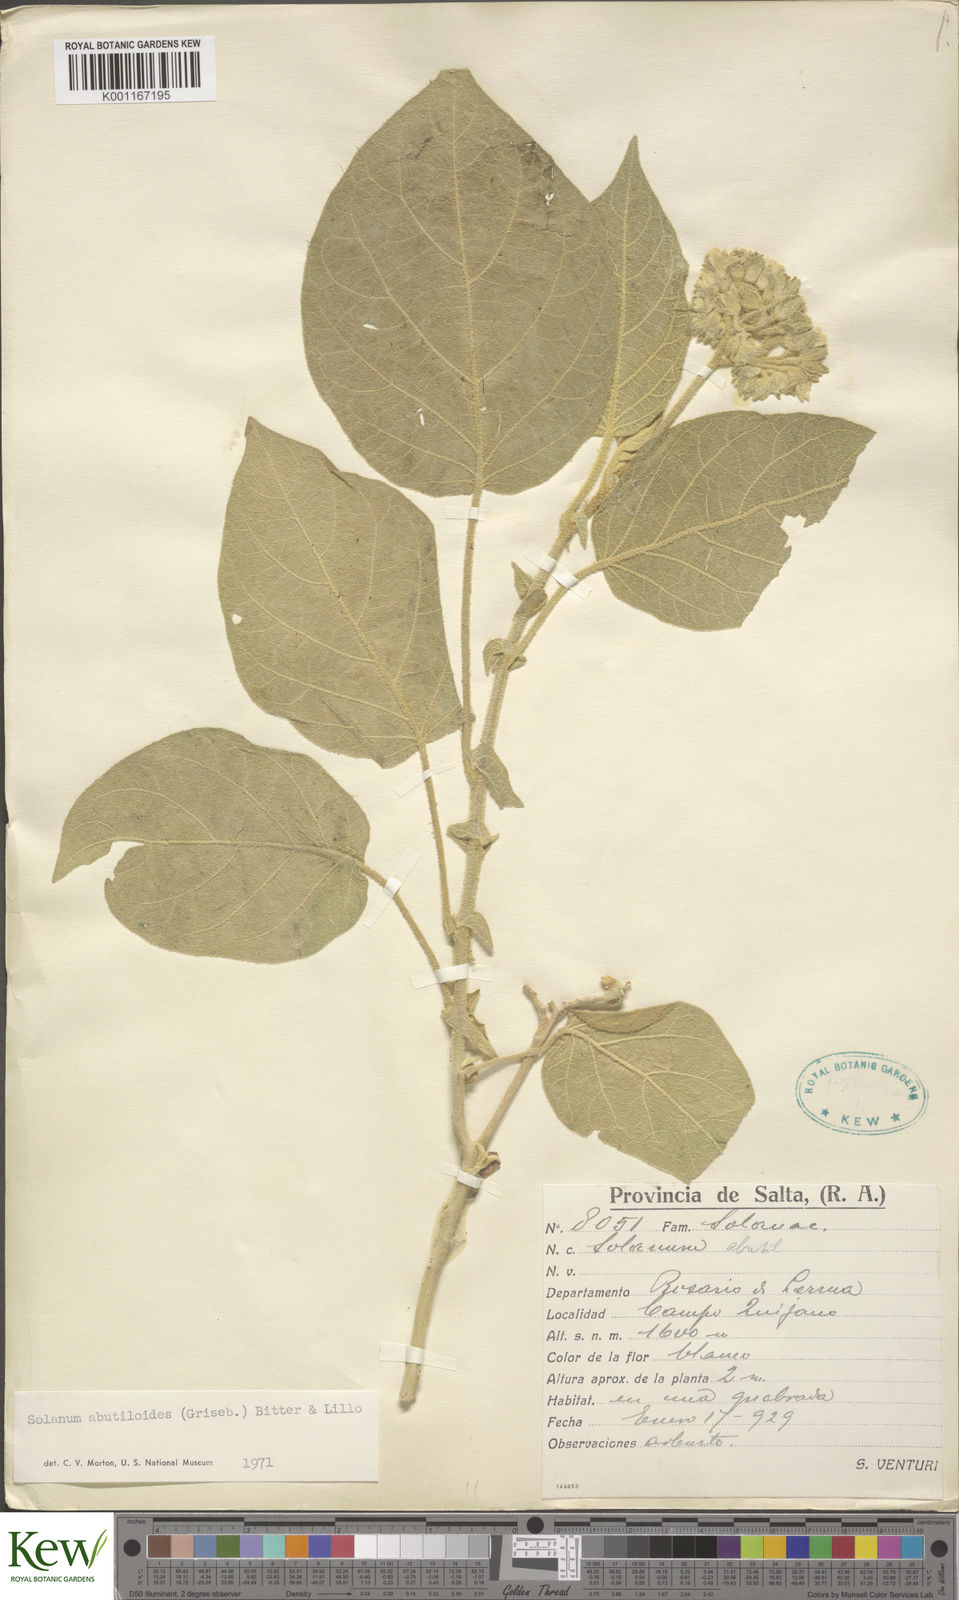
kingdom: Plantae
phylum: Tracheophyta
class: Magnoliopsida
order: Solanales
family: Solanaceae
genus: Solanum
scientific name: Solanum abutiloides
